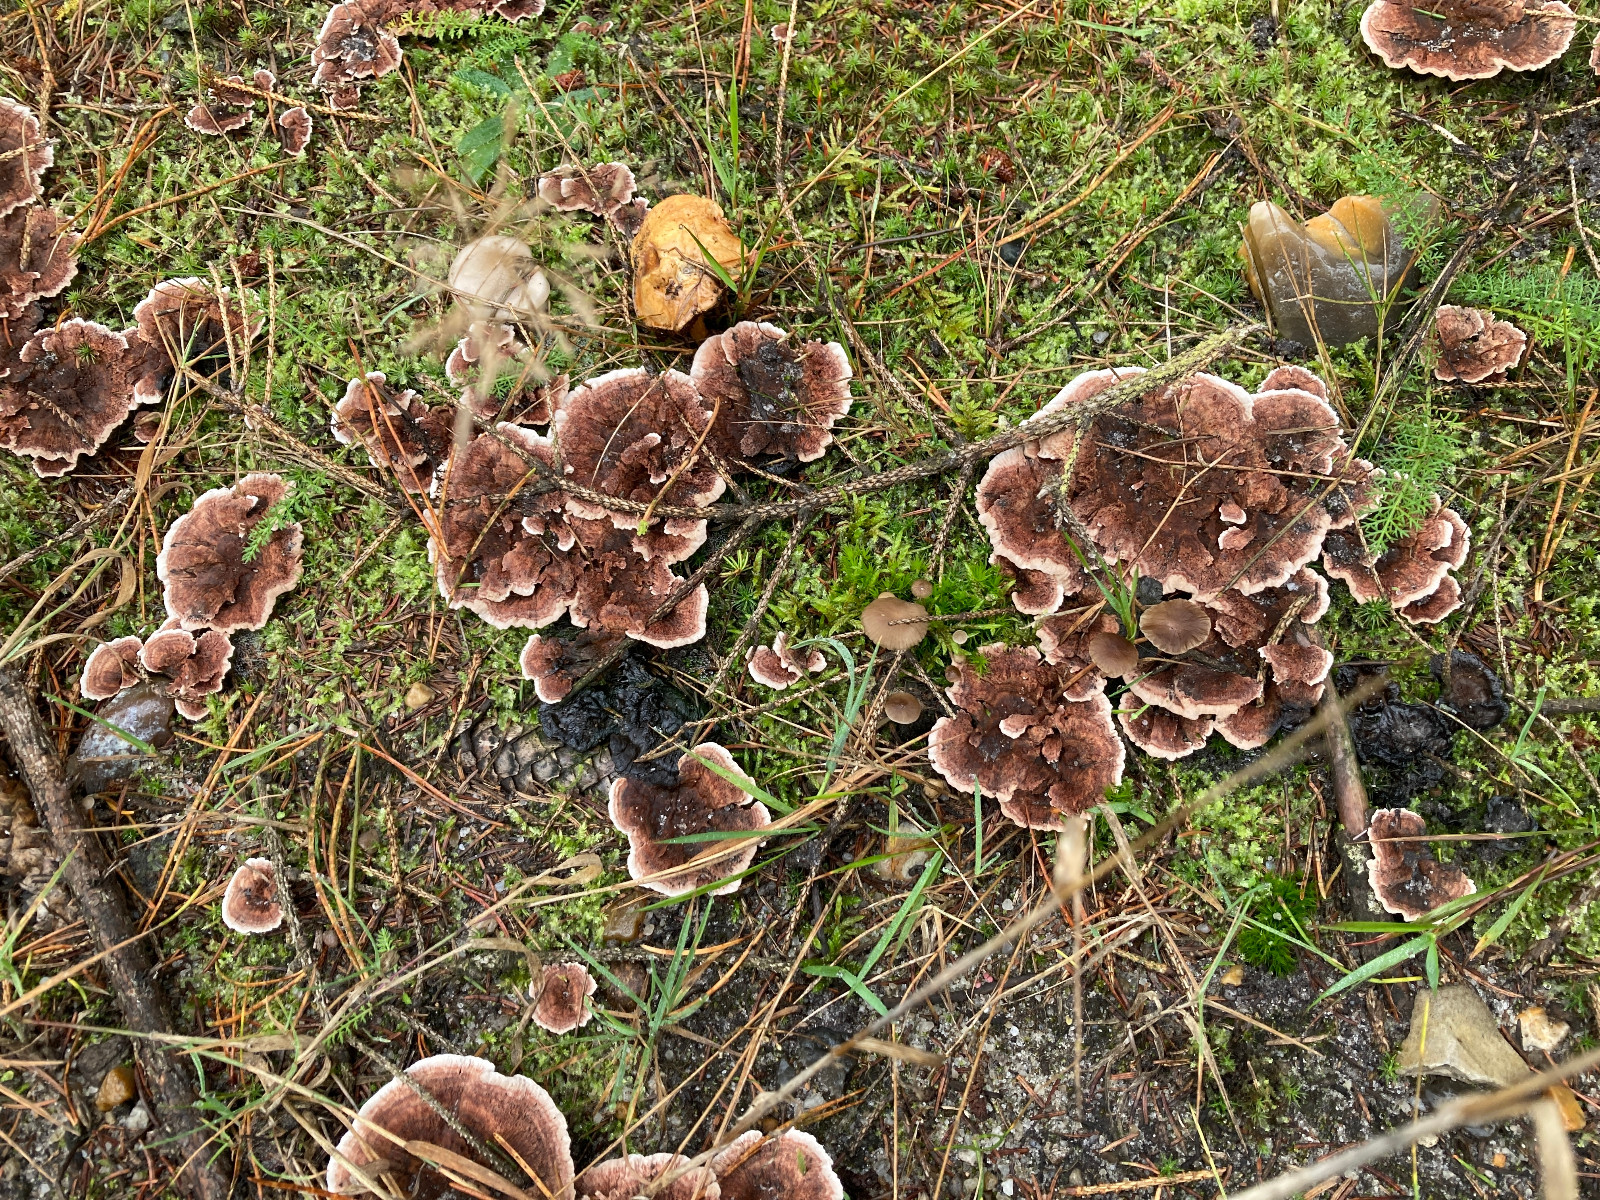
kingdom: Fungi
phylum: Basidiomycota
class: Agaricomycetes
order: Thelephorales
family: Bankeraceae
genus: Hydnellum
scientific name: Hydnellum concrescens
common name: Zoned tooth
